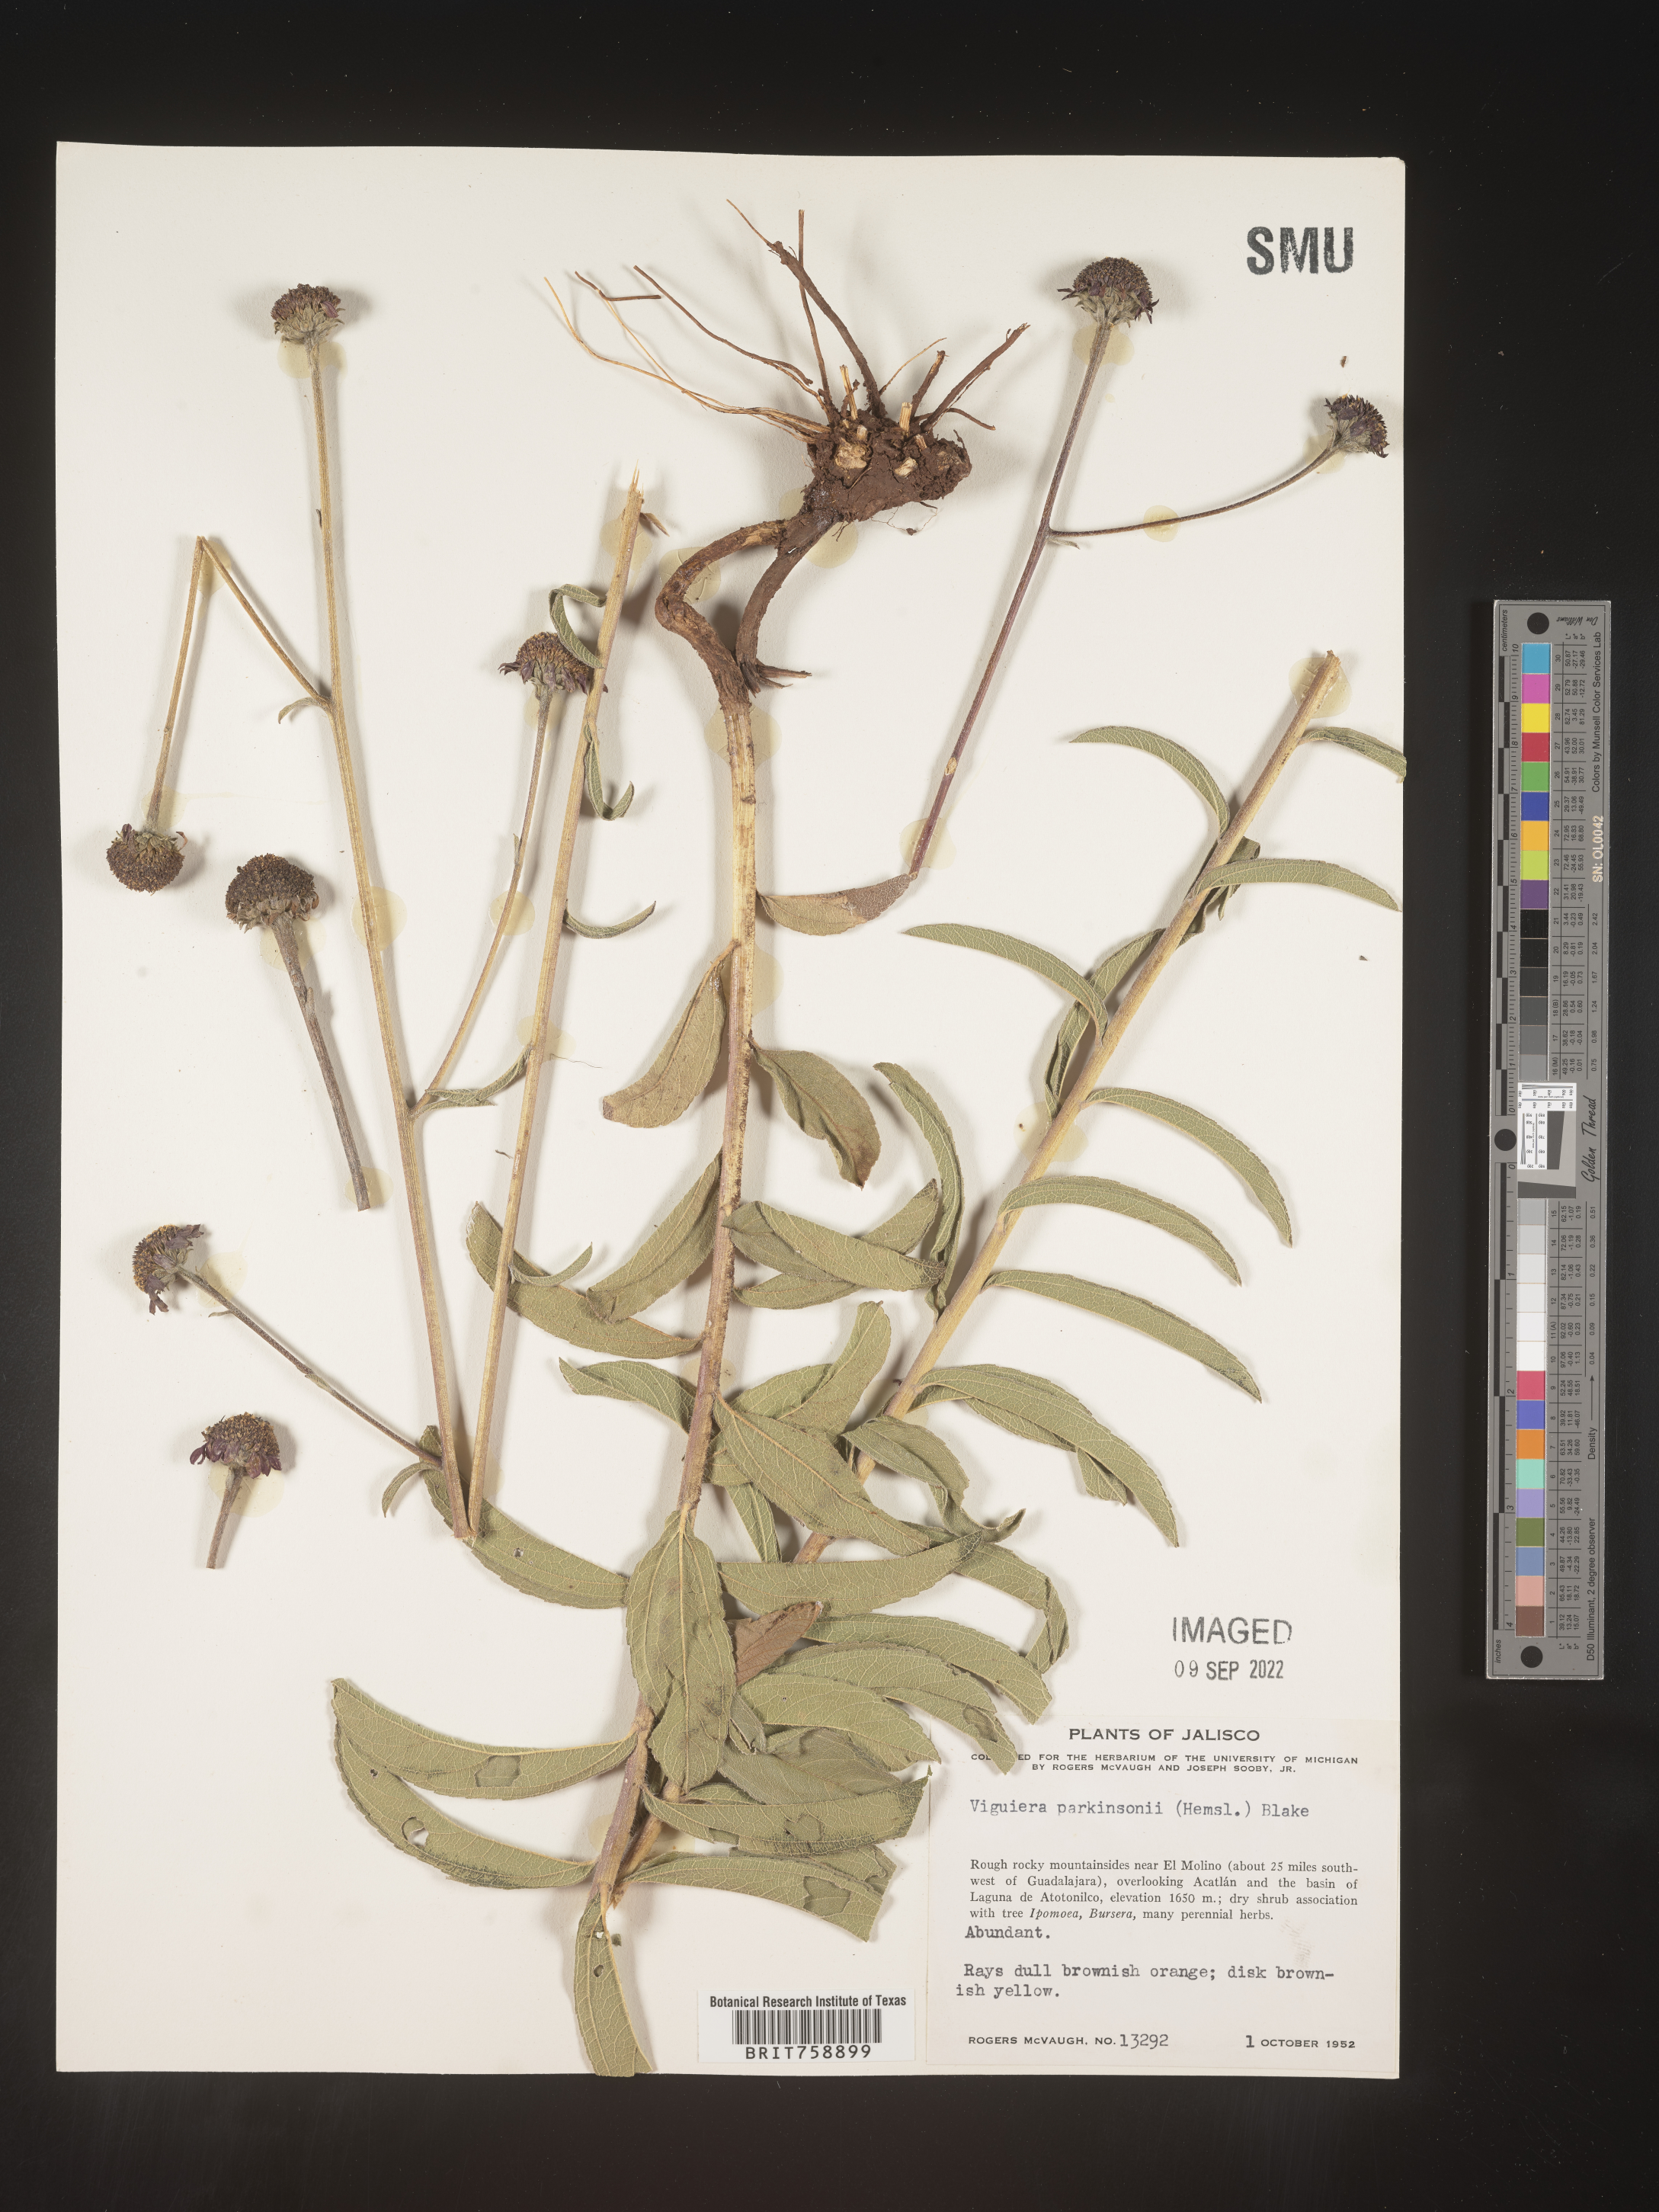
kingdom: Plantae
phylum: Tracheophyta
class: Magnoliopsida
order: Asterales
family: Asteraceae
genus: Viguiera
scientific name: Viguiera
